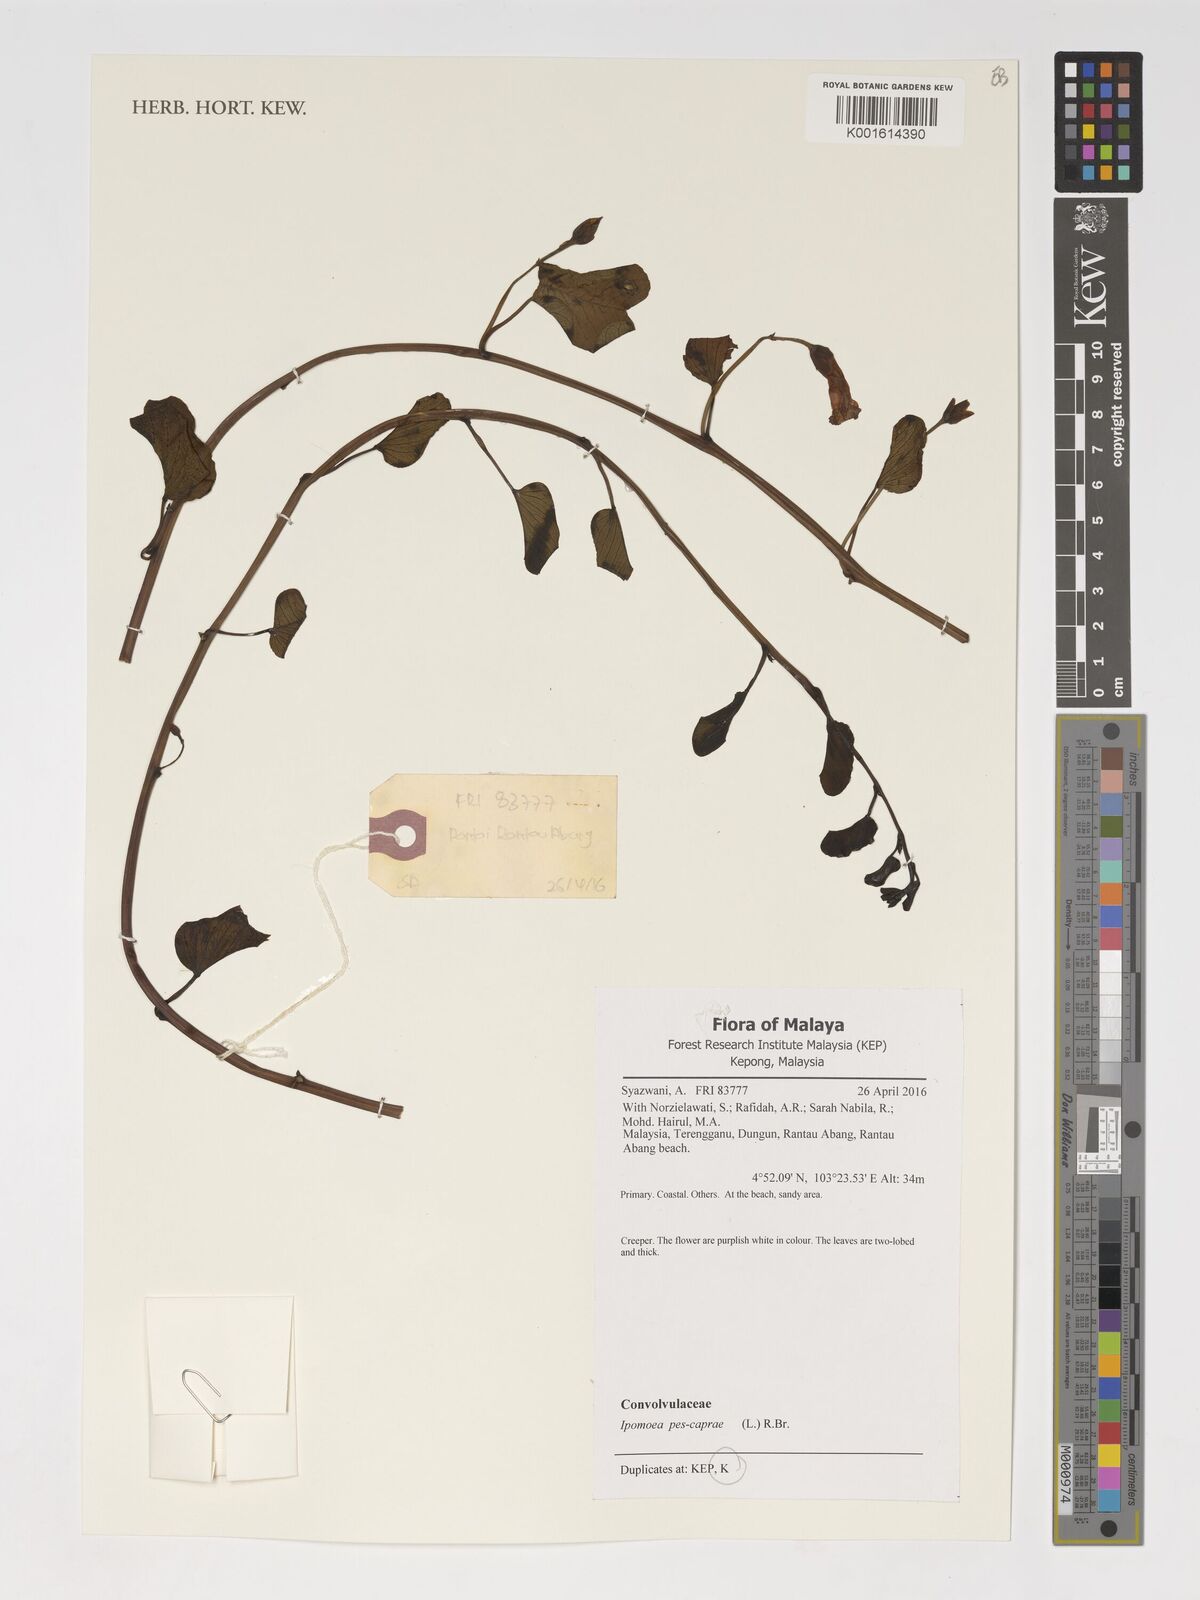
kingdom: Plantae
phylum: Tracheophyta
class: Magnoliopsida
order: Solanales
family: Convolvulaceae
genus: Ipomoea
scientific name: Ipomoea pes-caprae
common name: Beach morning glory
